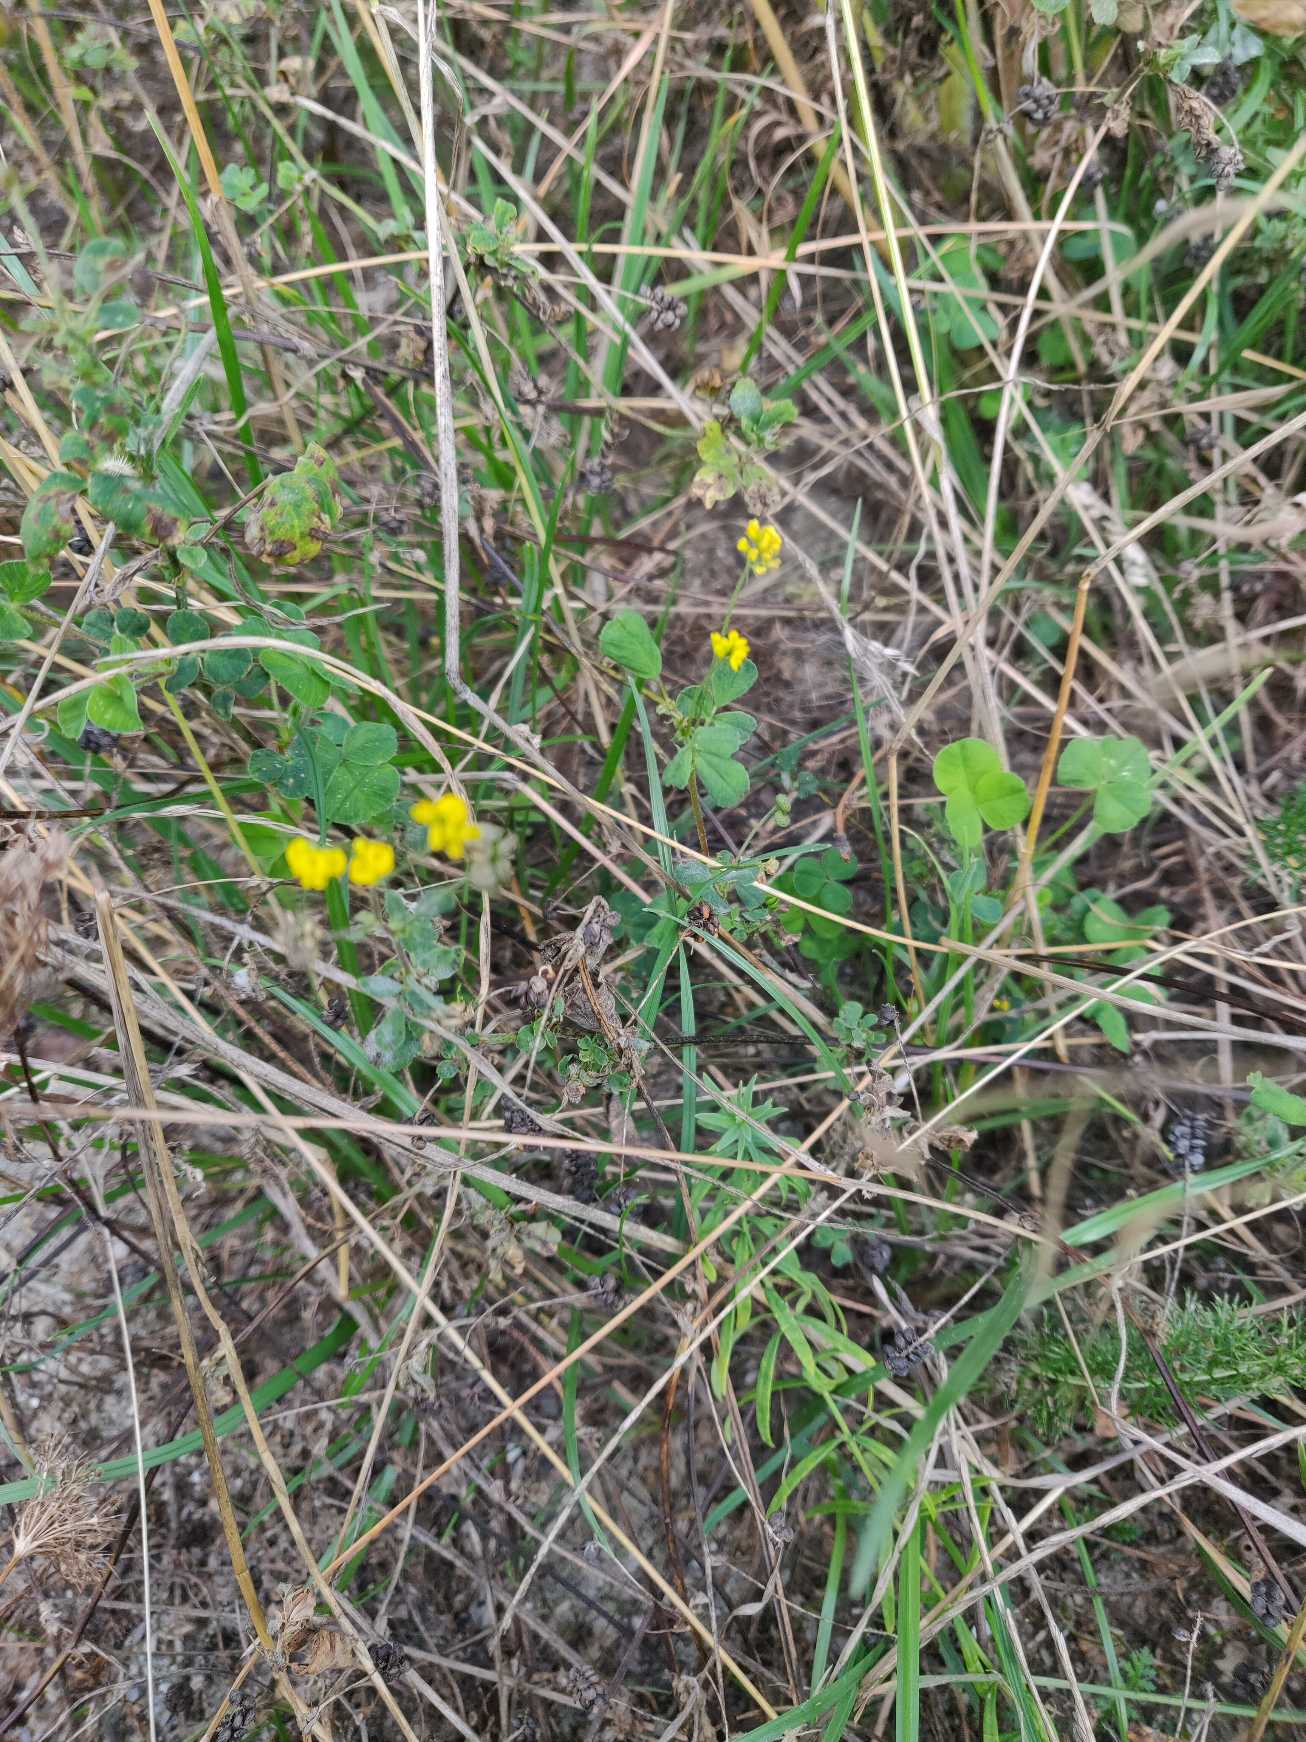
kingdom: Plantae
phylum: Tracheophyta
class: Magnoliopsida
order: Fabales
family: Fabaceae
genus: Medicago
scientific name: Medicago lupulina
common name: Humle-sneglebælg
